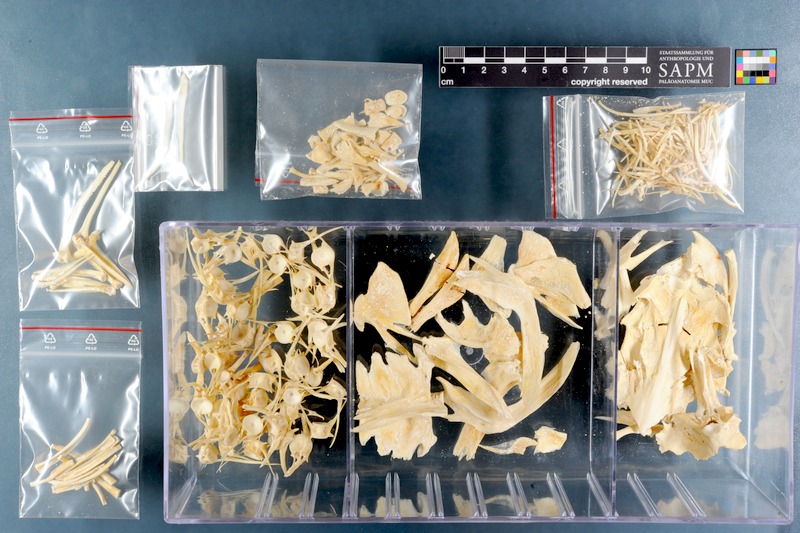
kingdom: Animalia
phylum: Chordata
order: Siluriformes
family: Pimelodidae
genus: Pinirampus
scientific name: Pinirampus pirinampu
